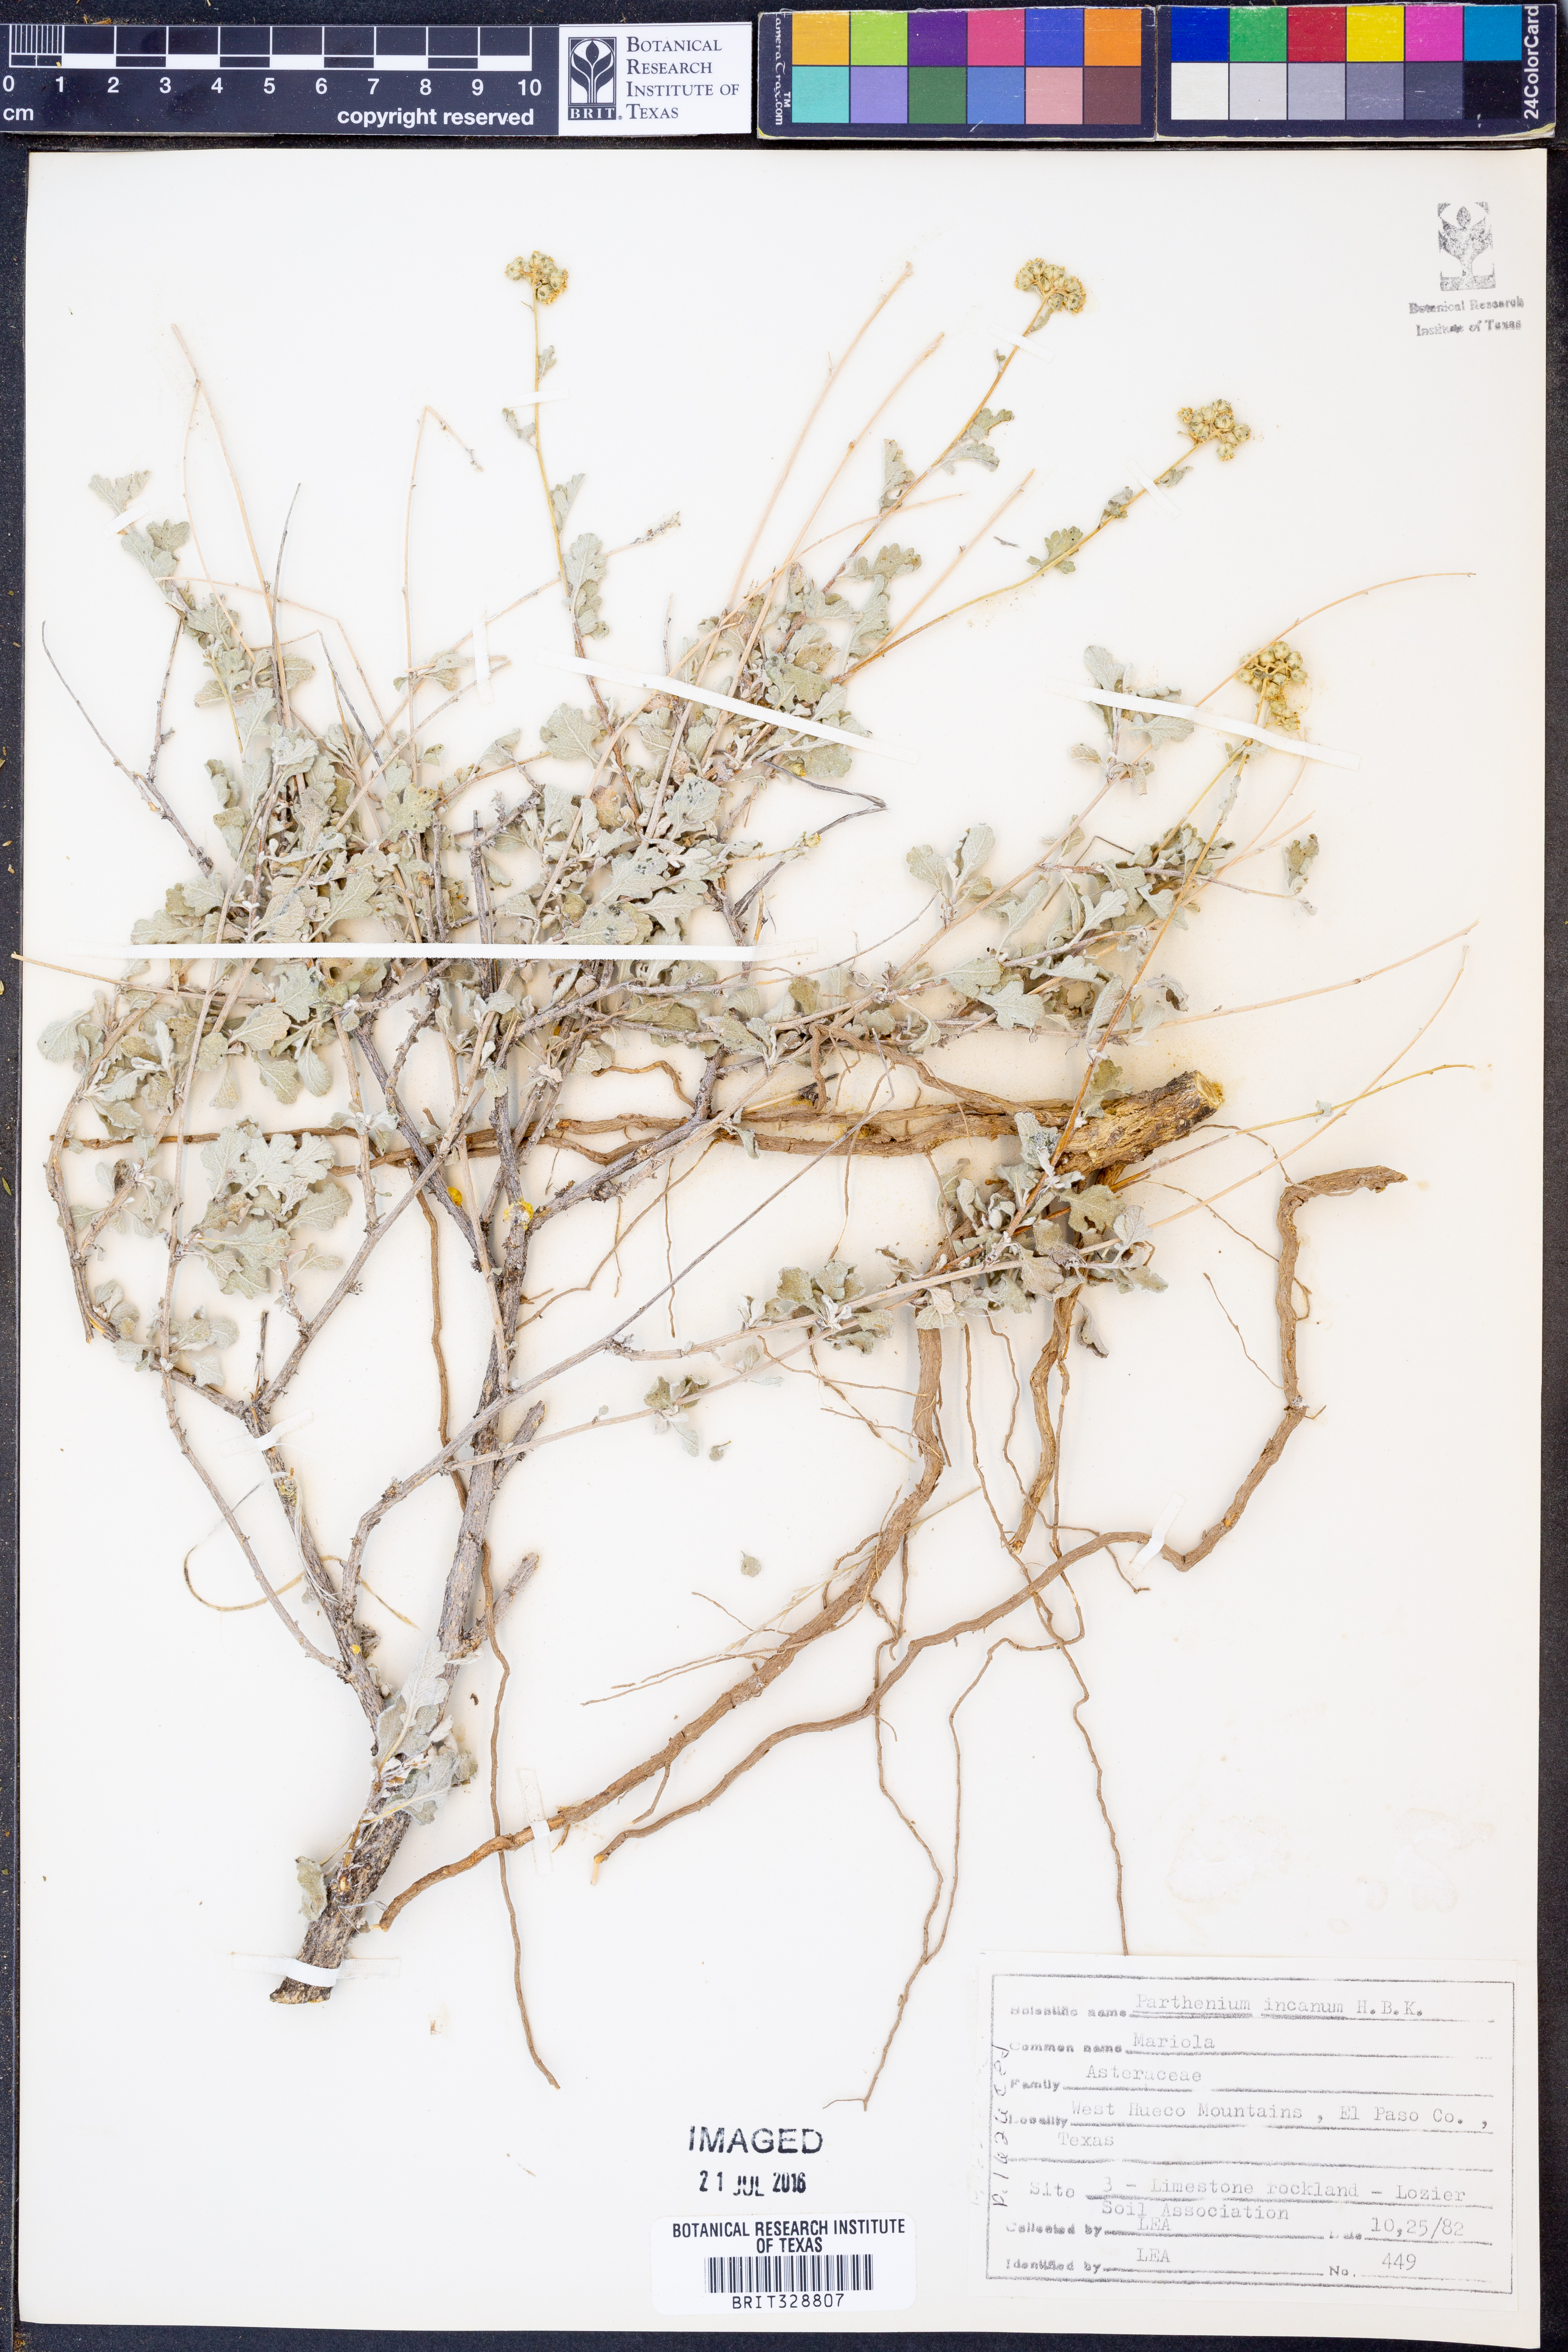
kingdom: Plantae
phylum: Tracheophyta
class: Magnoliopsida
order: Asterales
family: Asteraceae
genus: Parthenium
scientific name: Parthenium incanum
